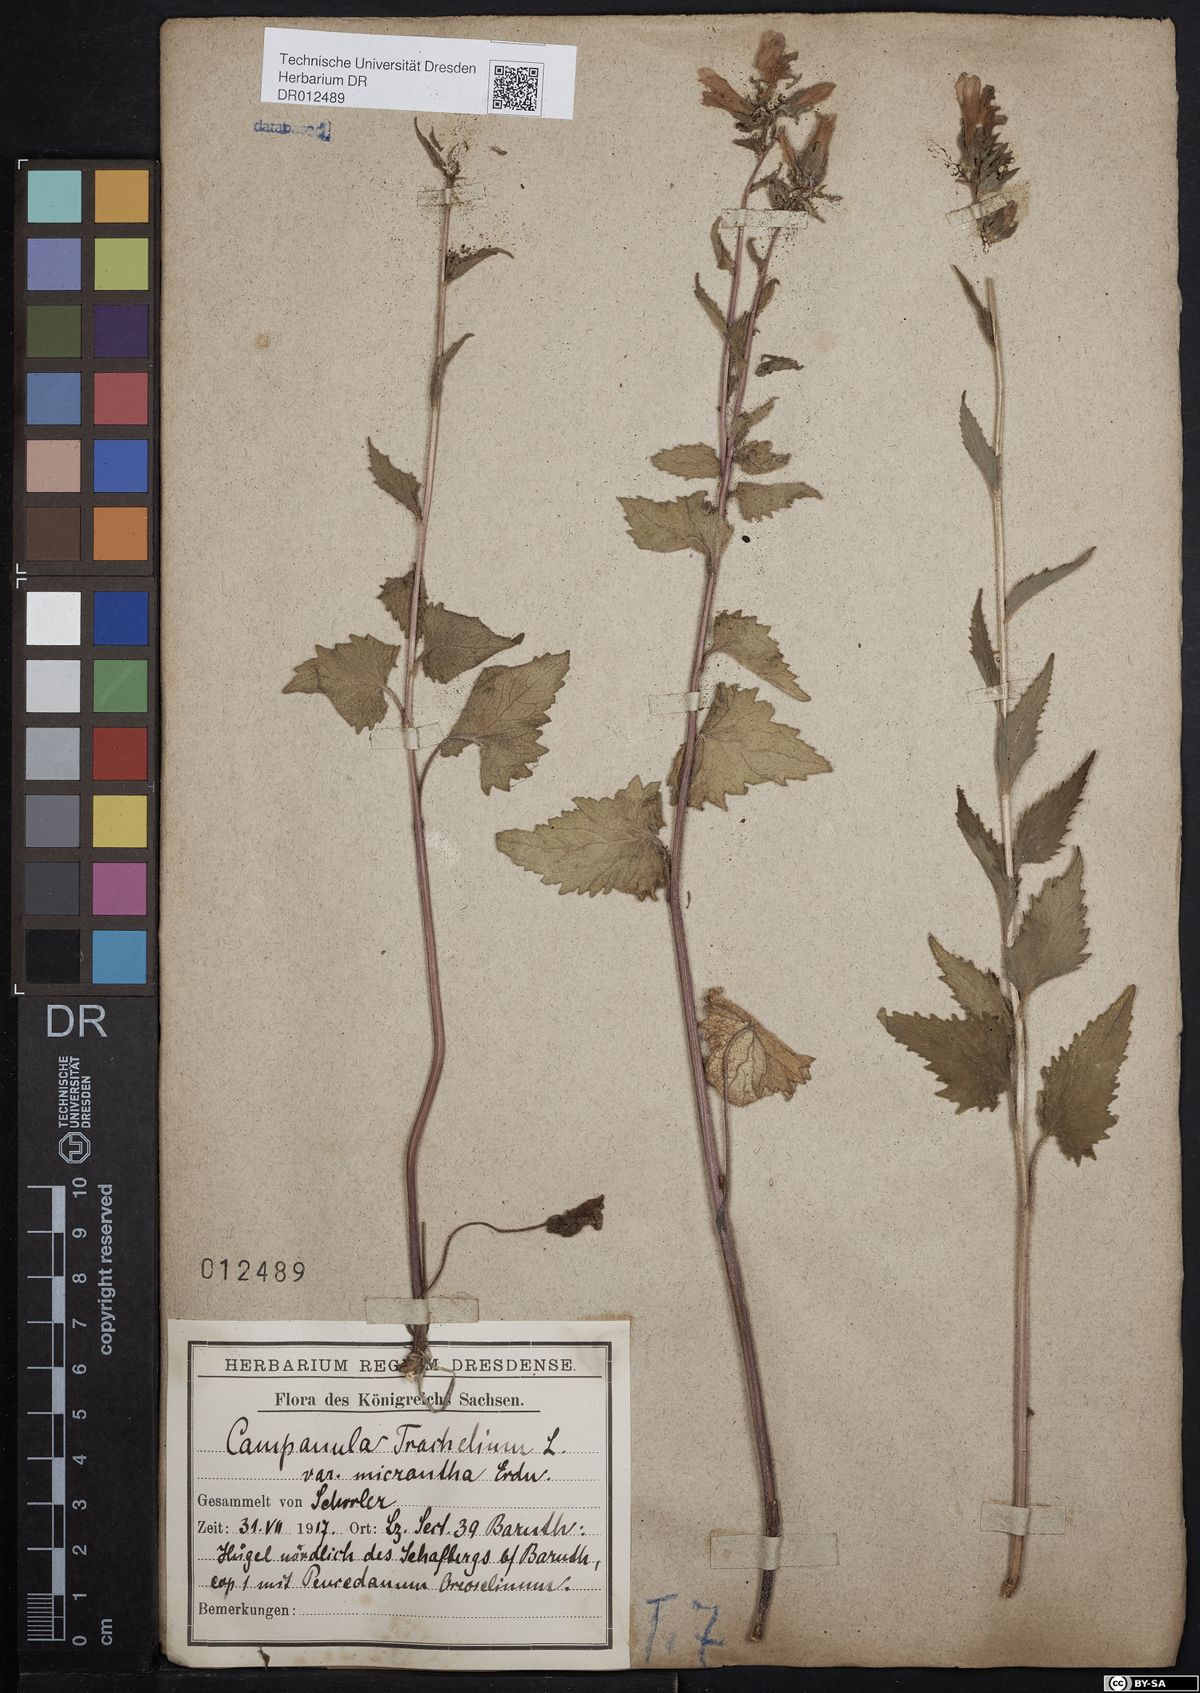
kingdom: Plantae
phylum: Tracheophyta
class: Magnoliopsida
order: Asterales
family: Campanulaceae
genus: Campanula
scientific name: Campanula trachelium
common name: Nettle-leaved bellflower
